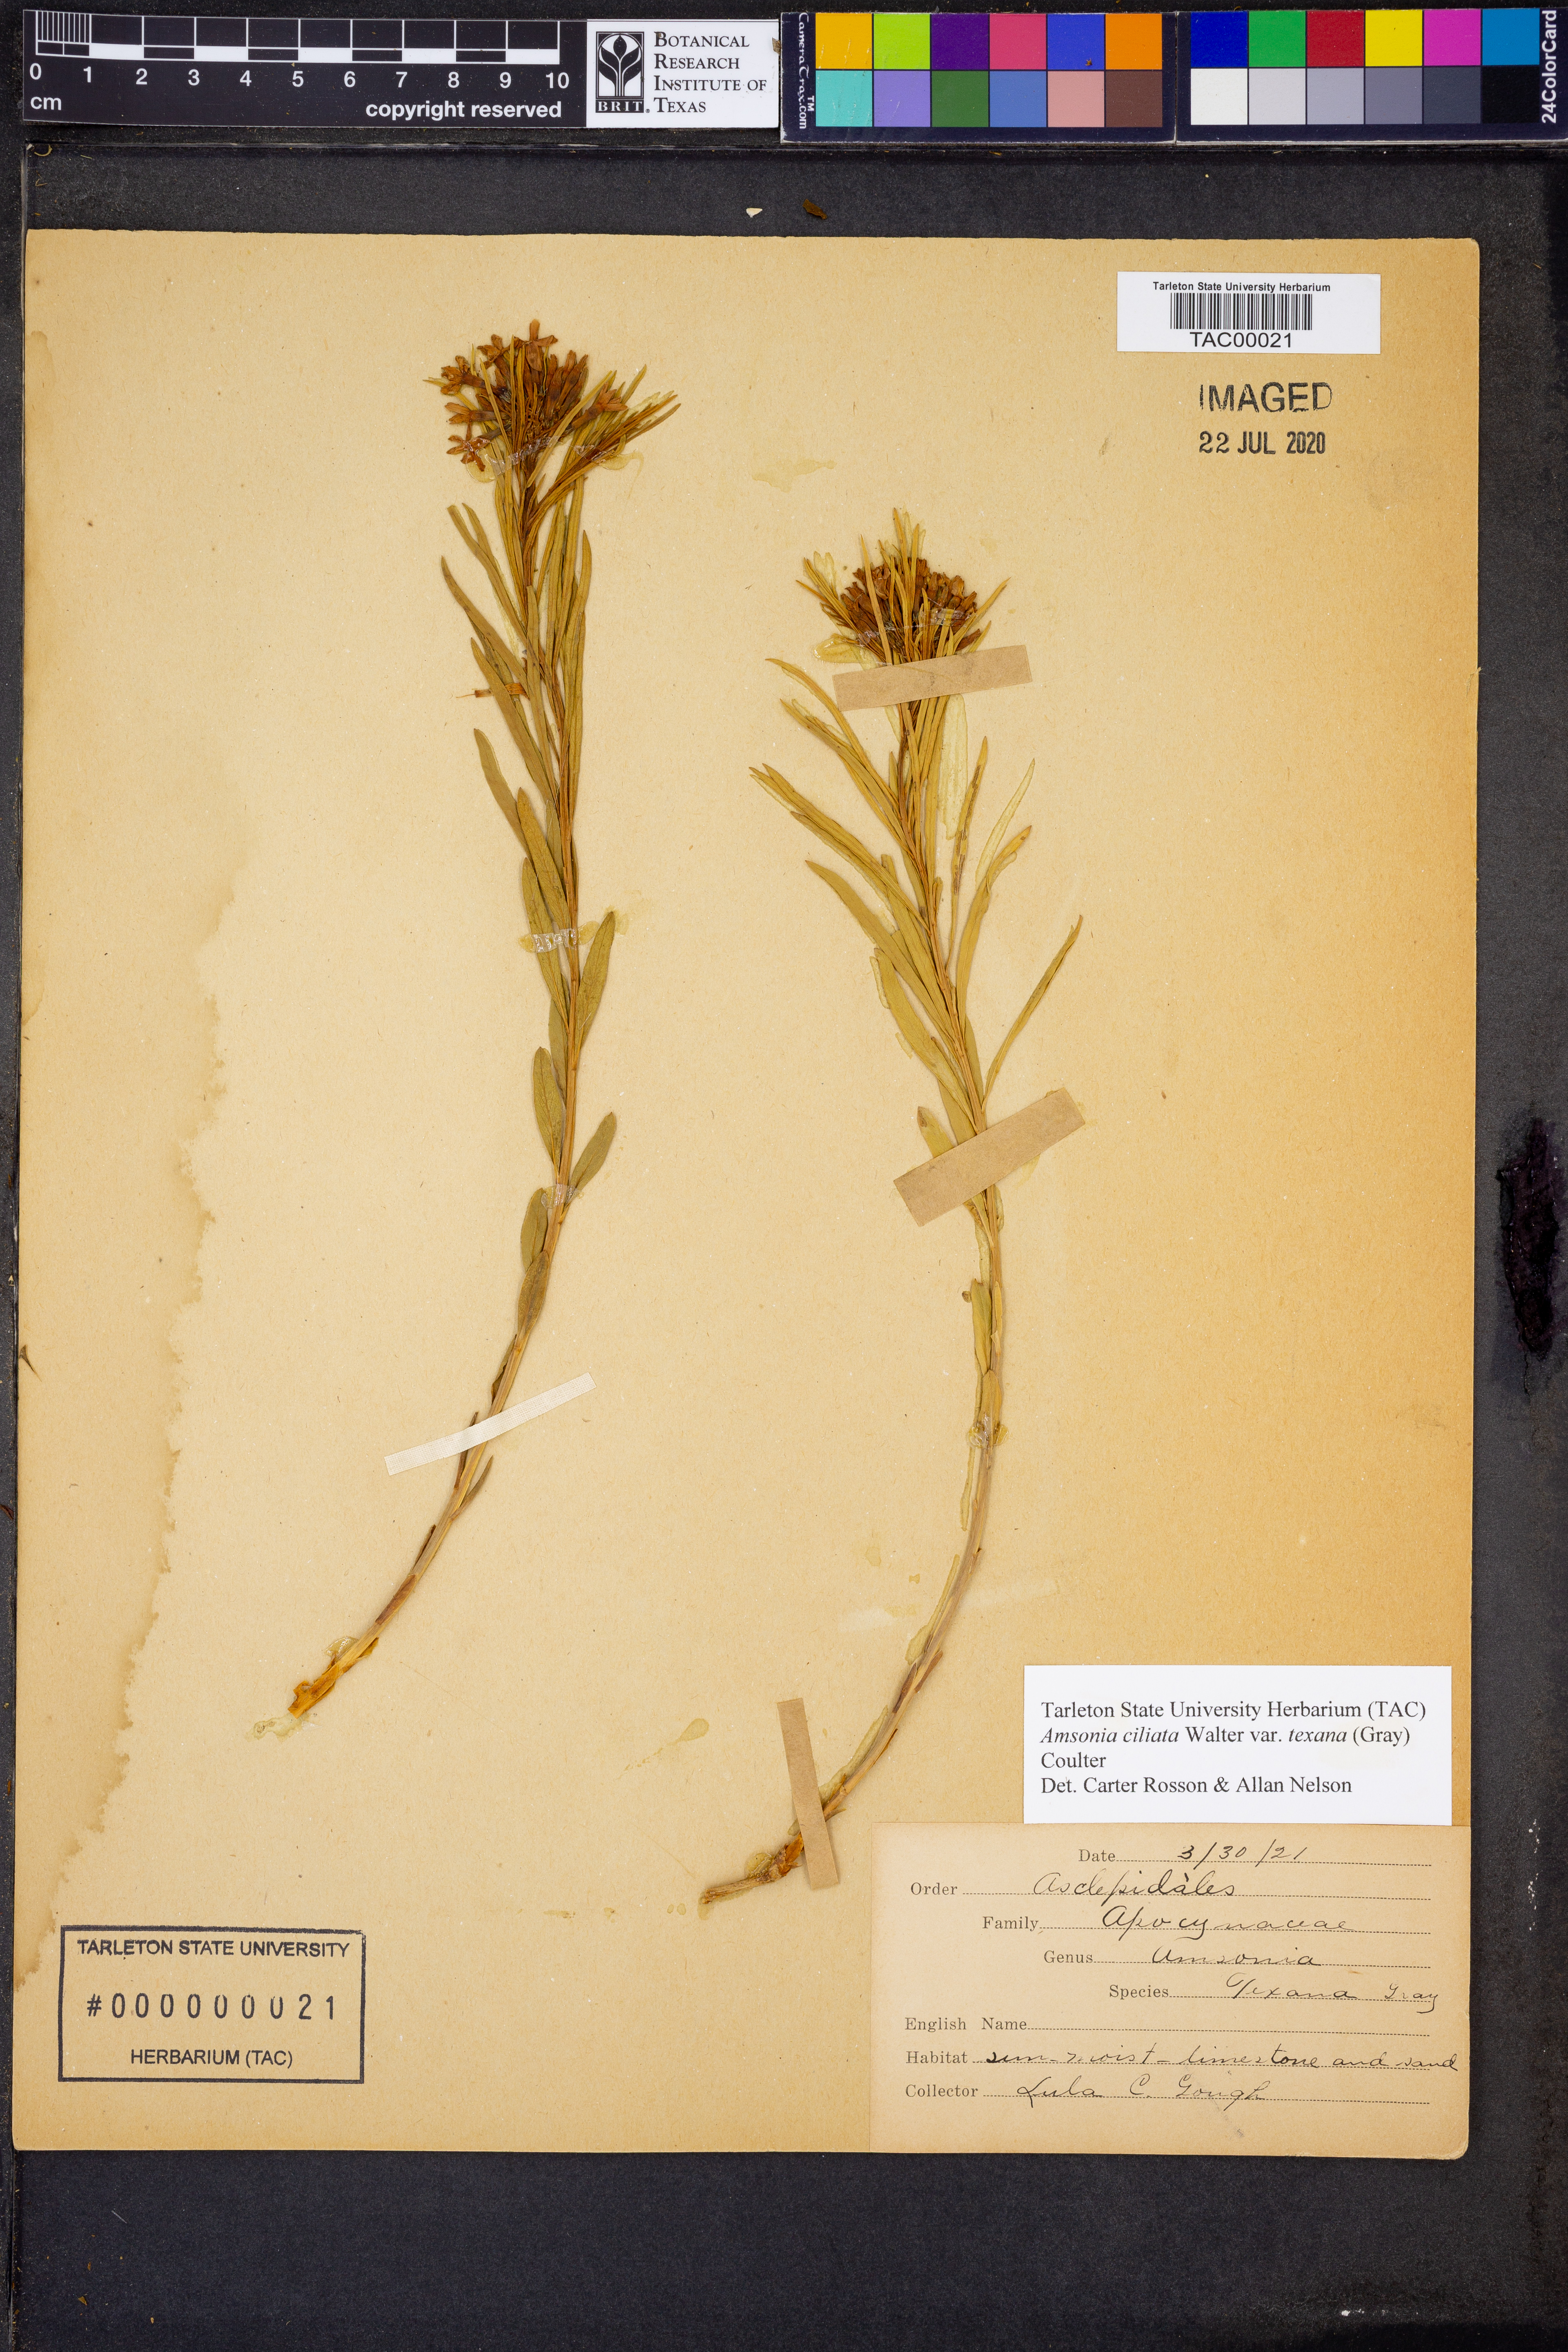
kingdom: Plantae
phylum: Tracheophyta
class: Magnoliopsida
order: Gentianales
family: Apocynaceae
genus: Amsonia
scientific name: Amsonia ciliata
